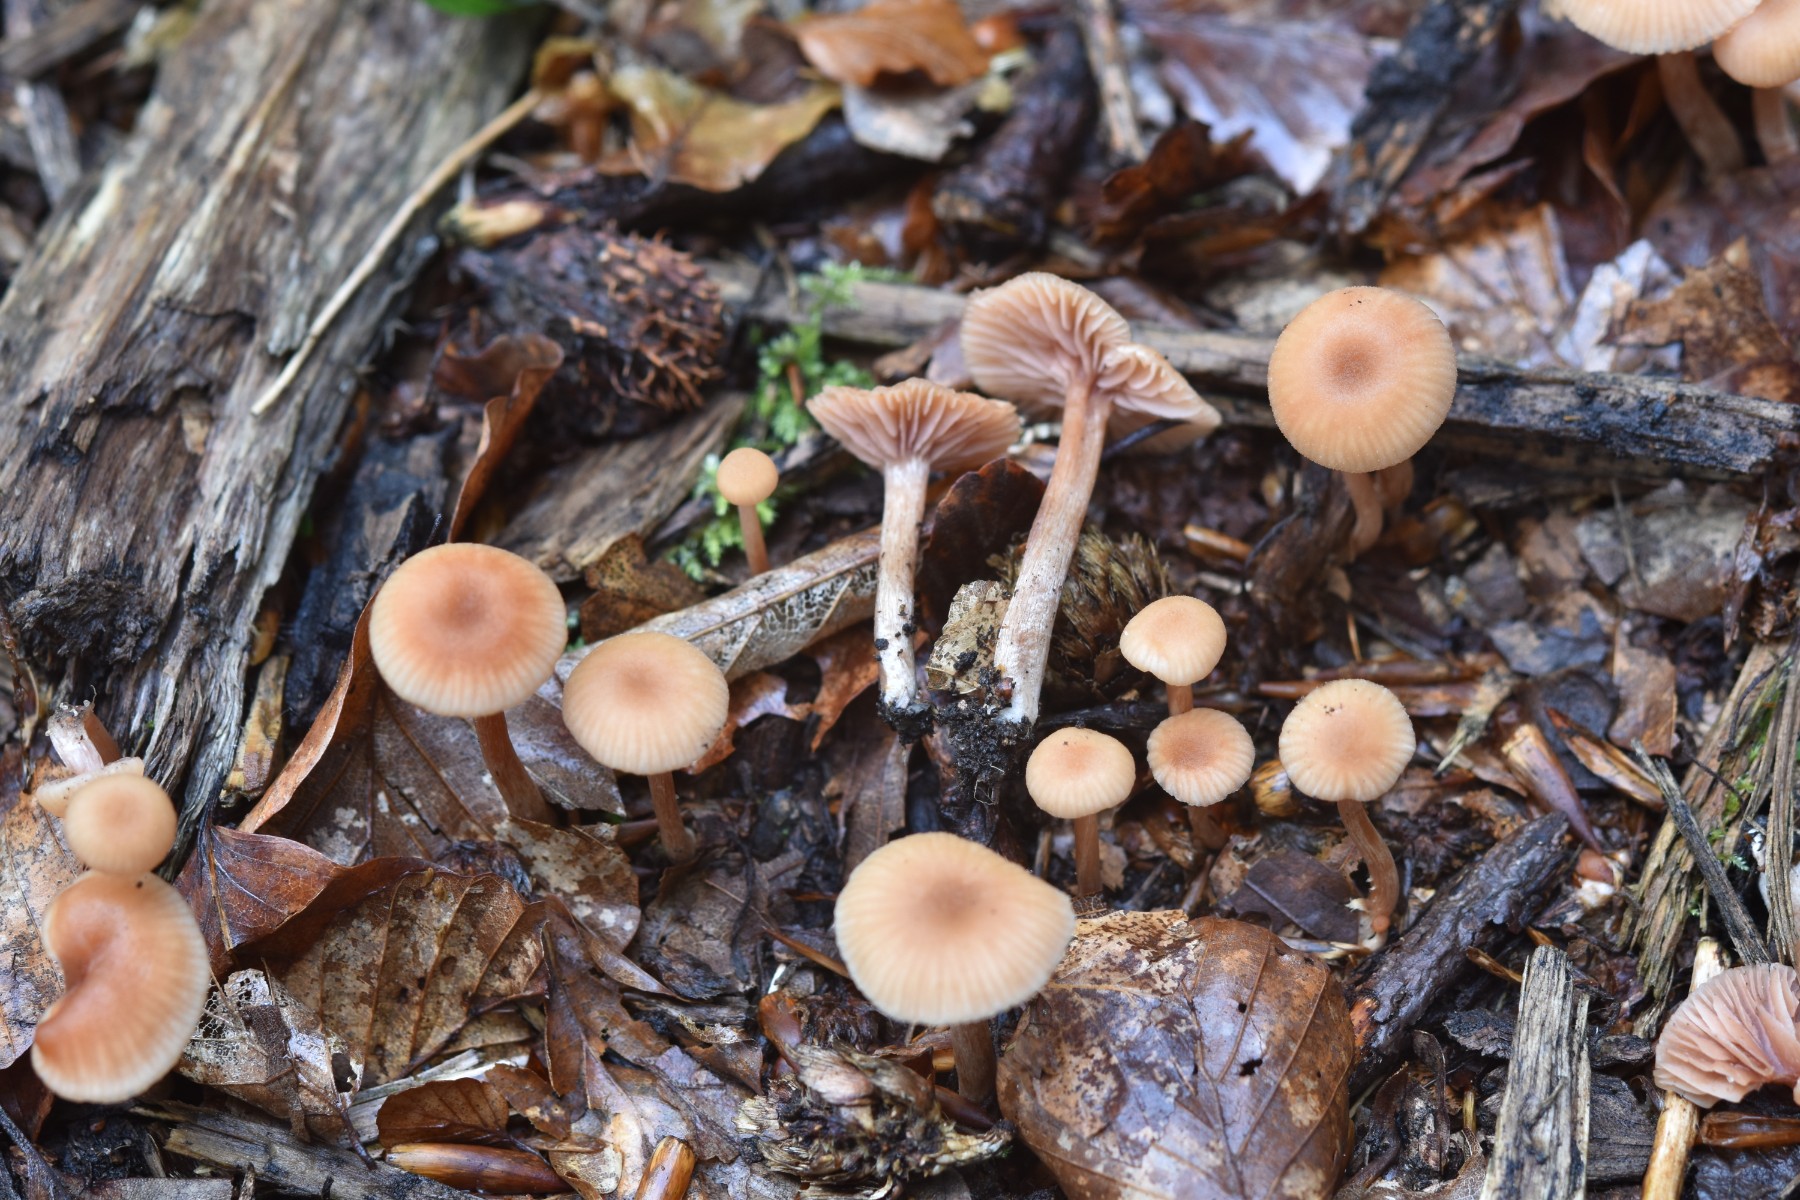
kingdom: Fungi
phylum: Basidiomycota
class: Agaricomycetes
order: Agaricales
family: Hydnangiaceae
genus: Laccaria
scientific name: Laccaria laccata
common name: rød ametysthat
